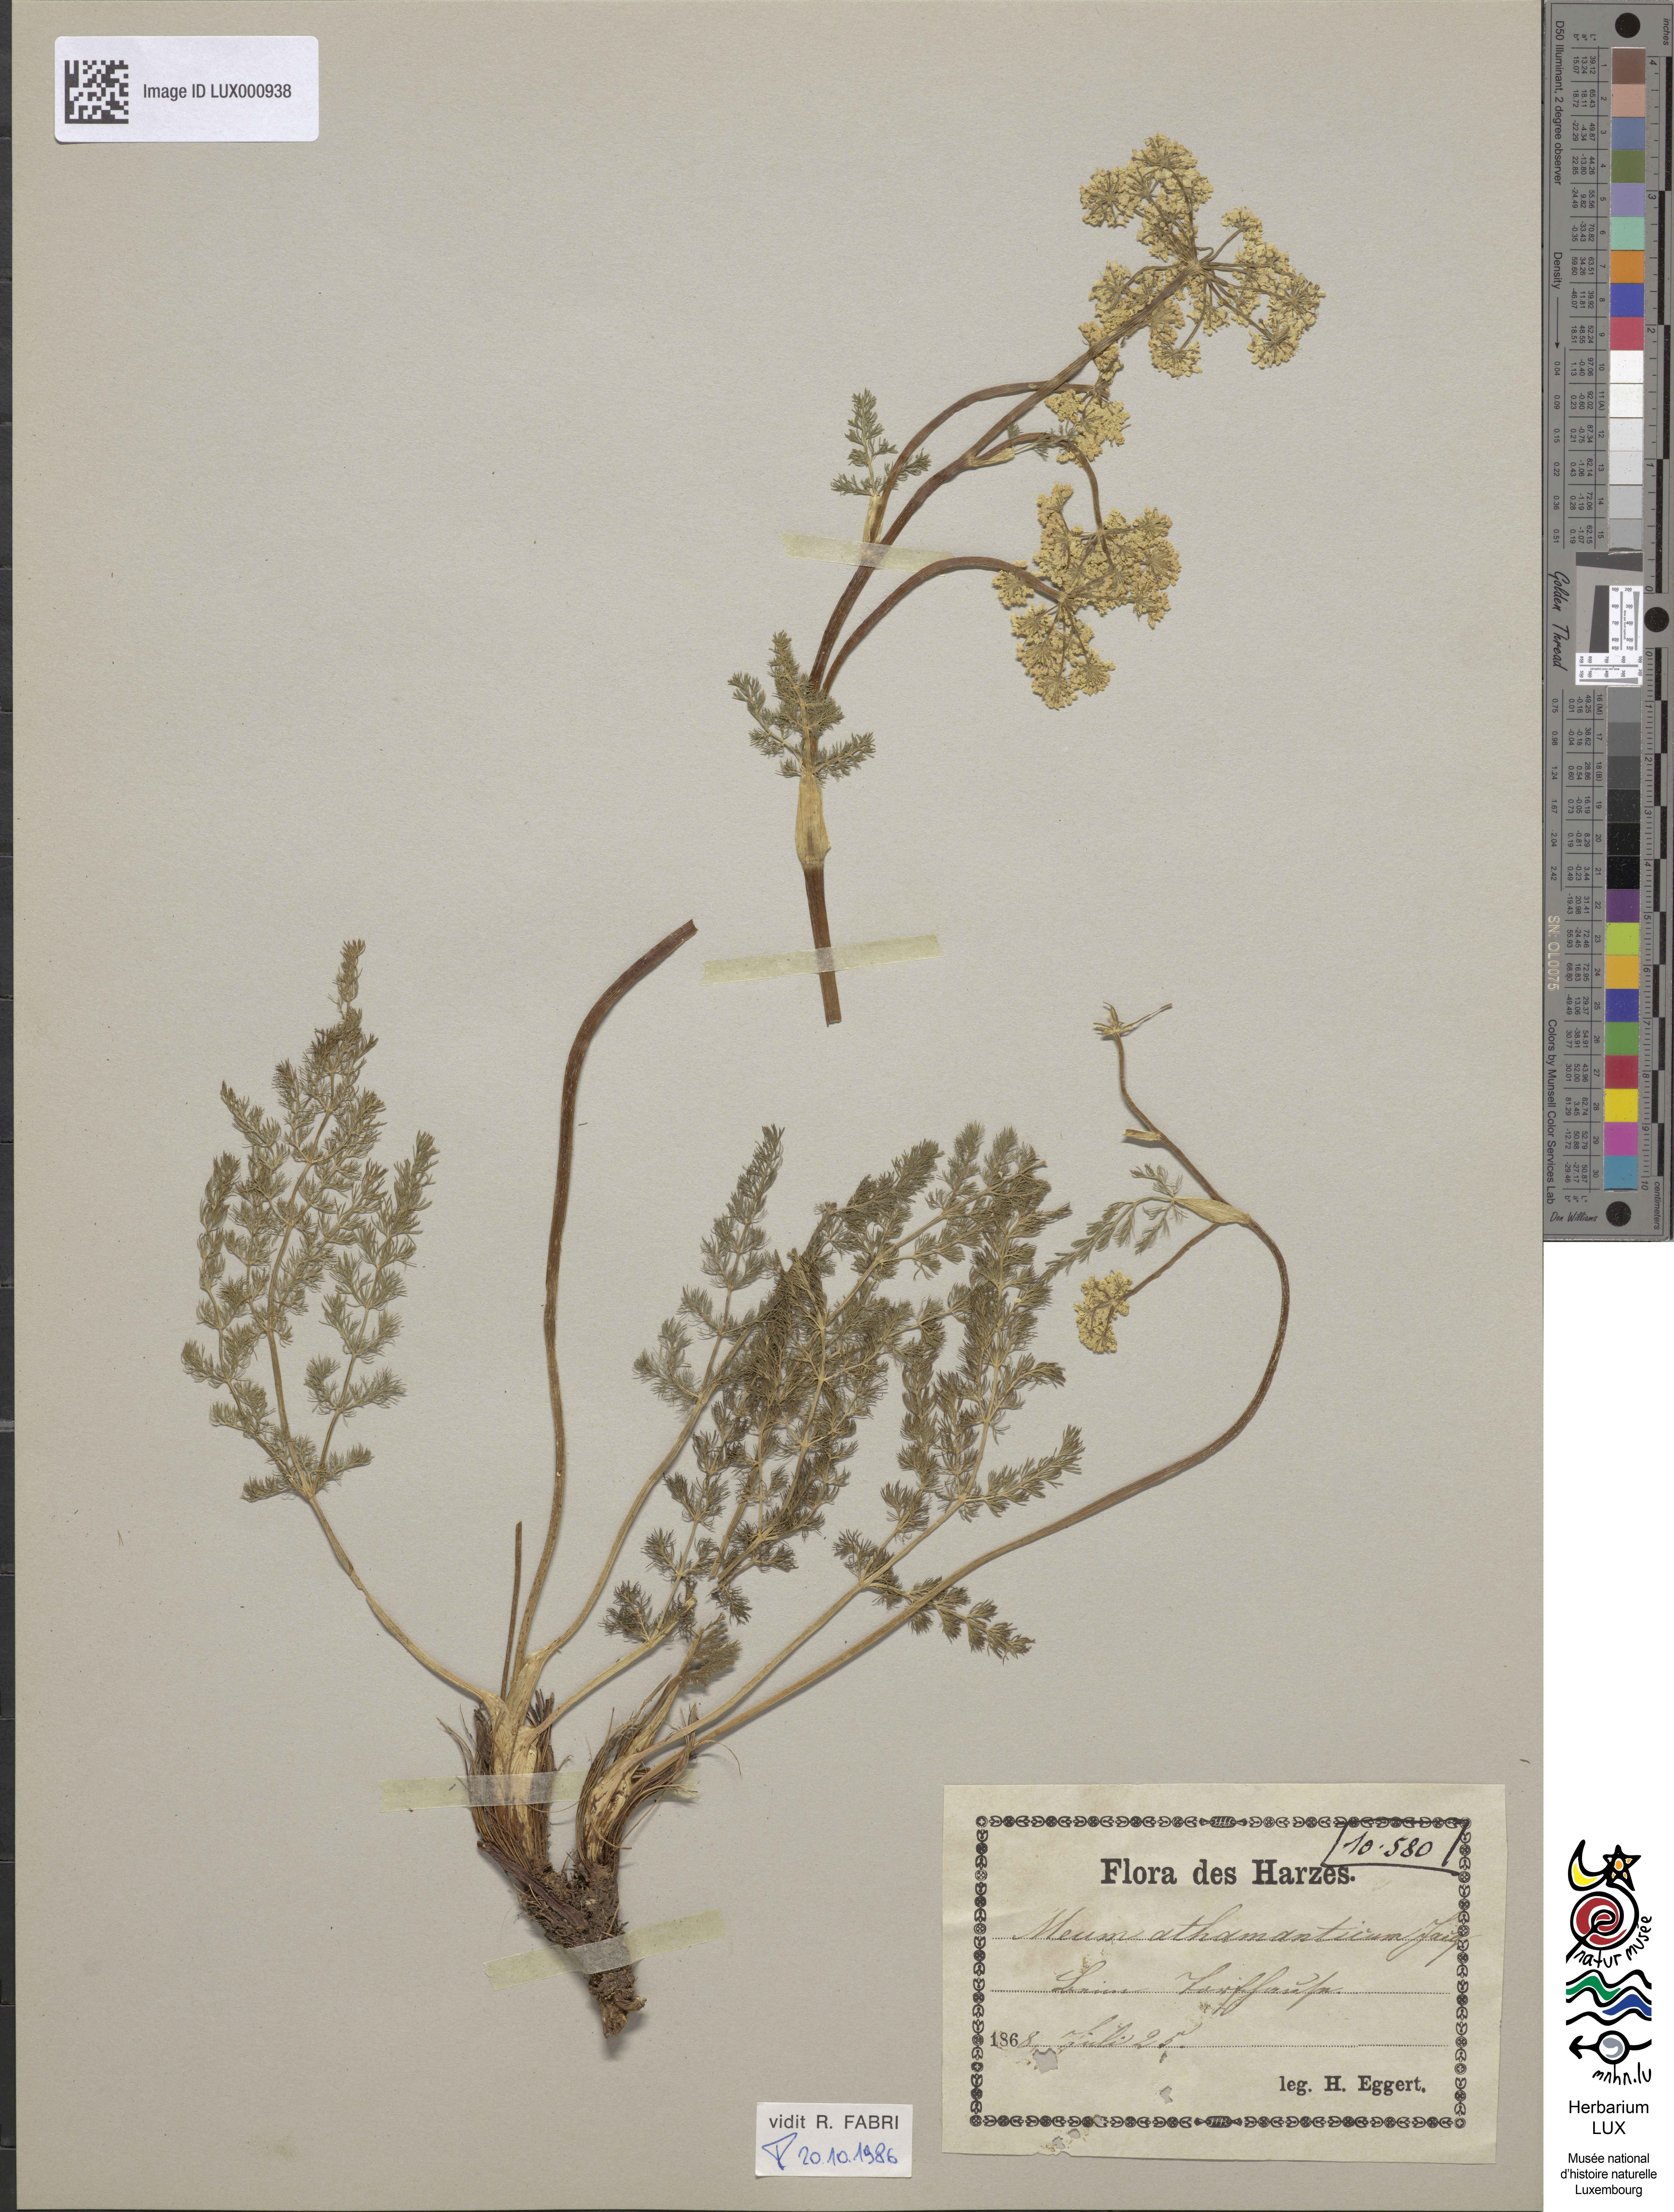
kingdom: Plantae
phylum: Tracheophyta
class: Magnoliopsida
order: Apiales
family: Apiaceae
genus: Meum
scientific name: Meum athamanticum
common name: Spignel
